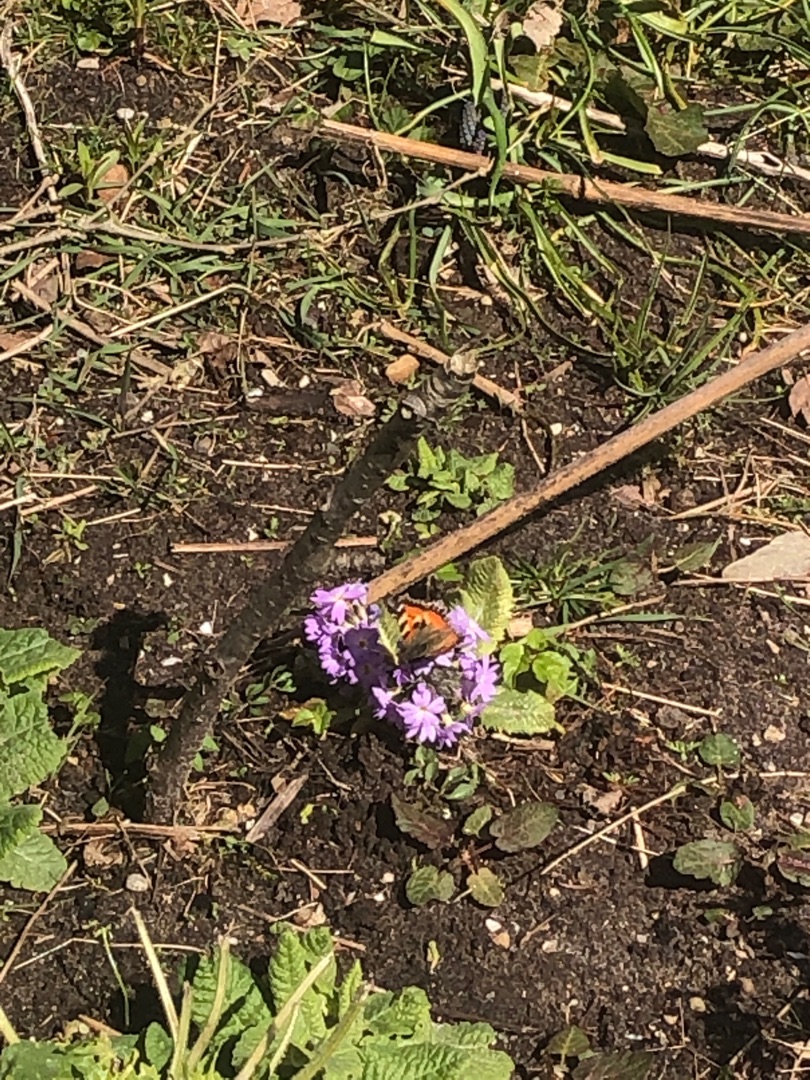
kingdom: Animalia
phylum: Arthropoda
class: Insecta
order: Lepidoptera
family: Nymphalidae
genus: Aglais
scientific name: Aglais urticae
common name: Nældens takvinge
